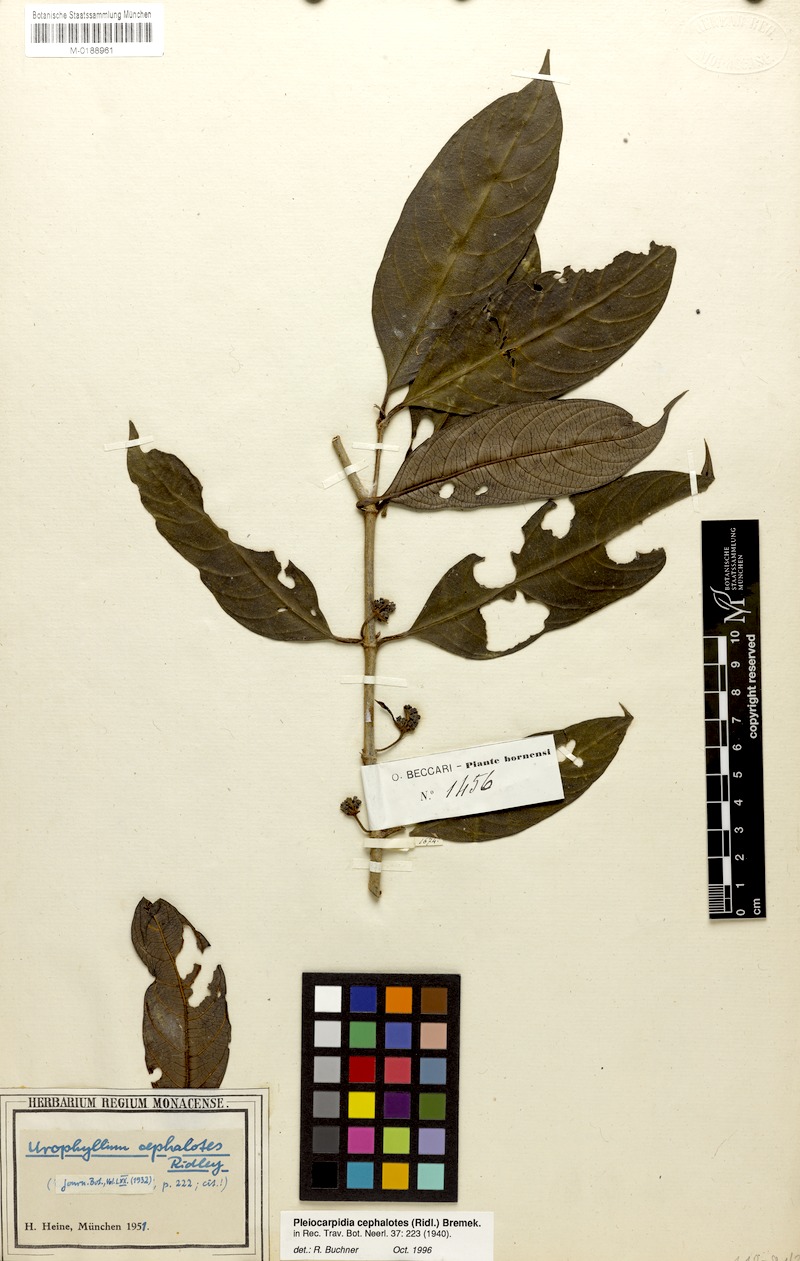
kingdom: Plantae
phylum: Tracheophyta
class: Magnoliopsida
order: Gentianales
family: Rubiaceae
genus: Urophyllum
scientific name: Urophyllum cephalotes
